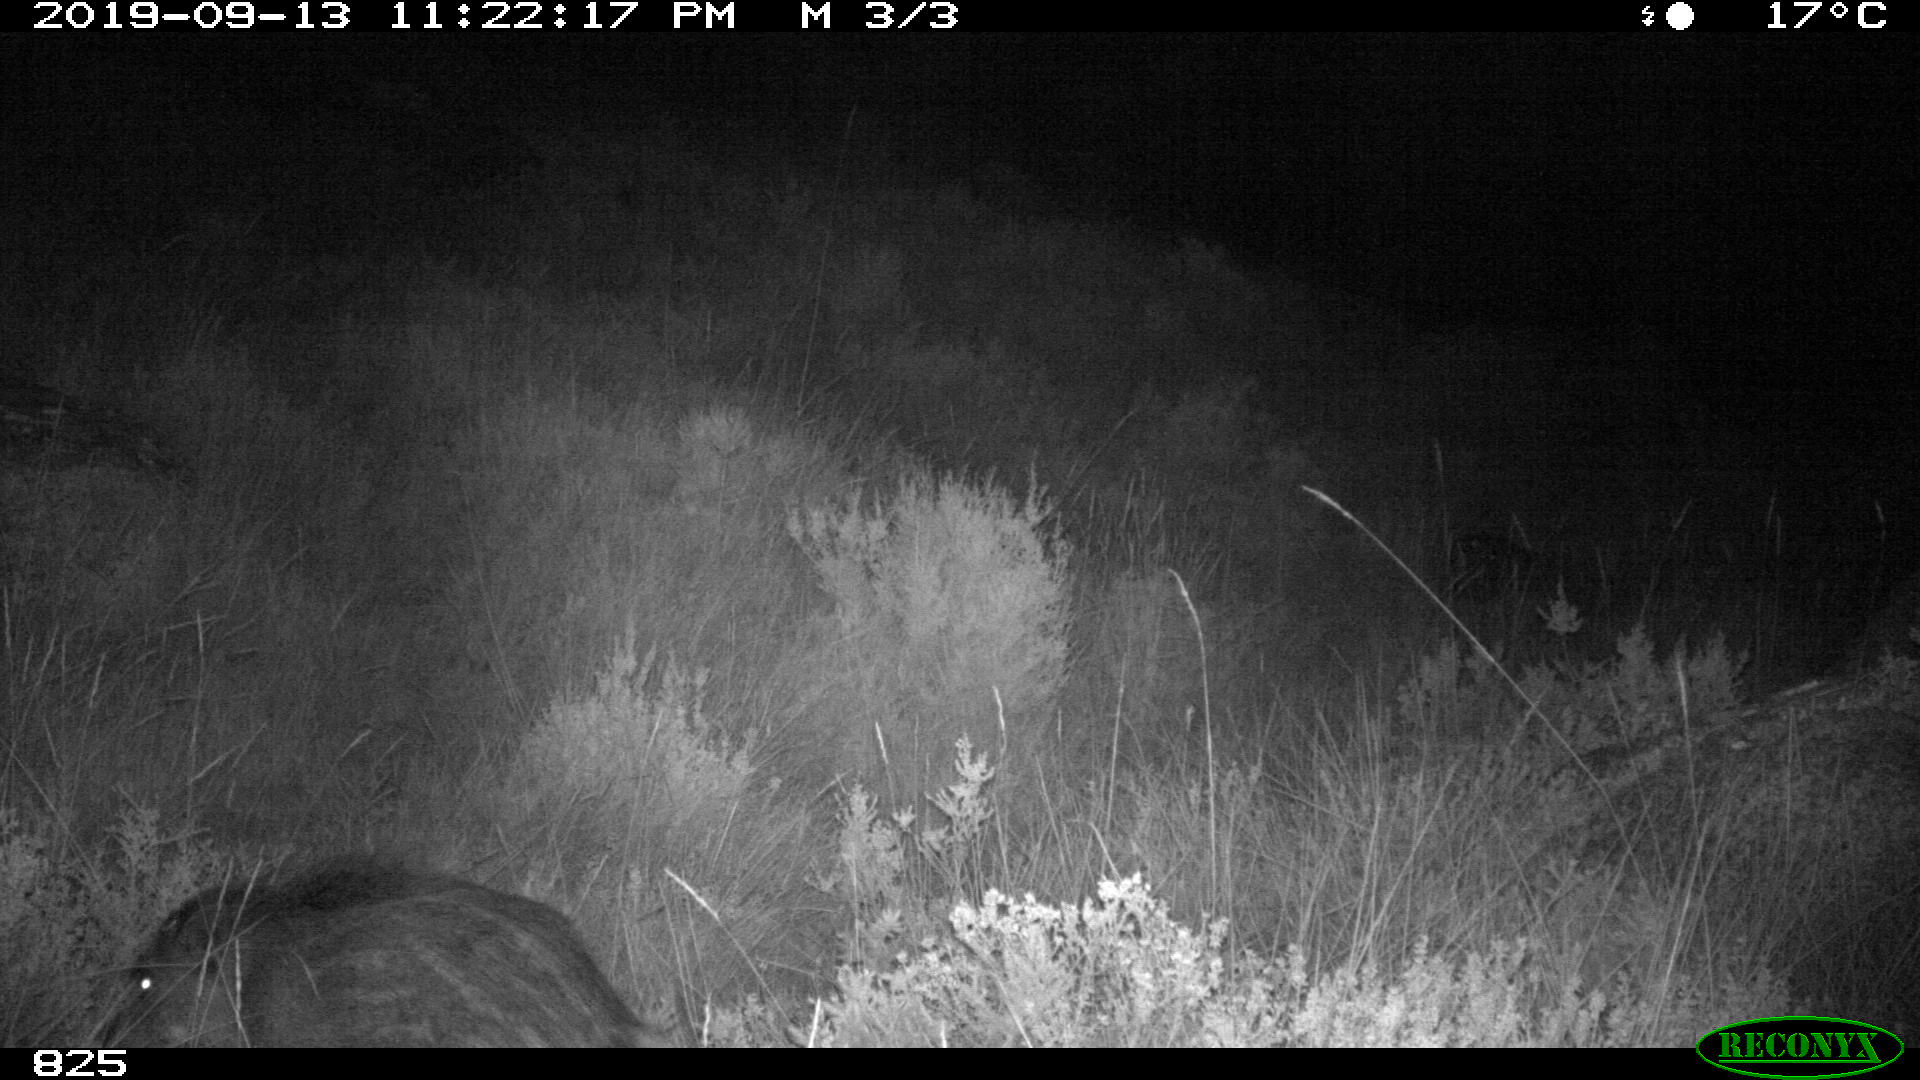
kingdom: Animalia
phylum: Chordata
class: Mammalia
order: Artiodactyla
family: Suidae
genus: Sus
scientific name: Sus scrofa
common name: Wild boar
